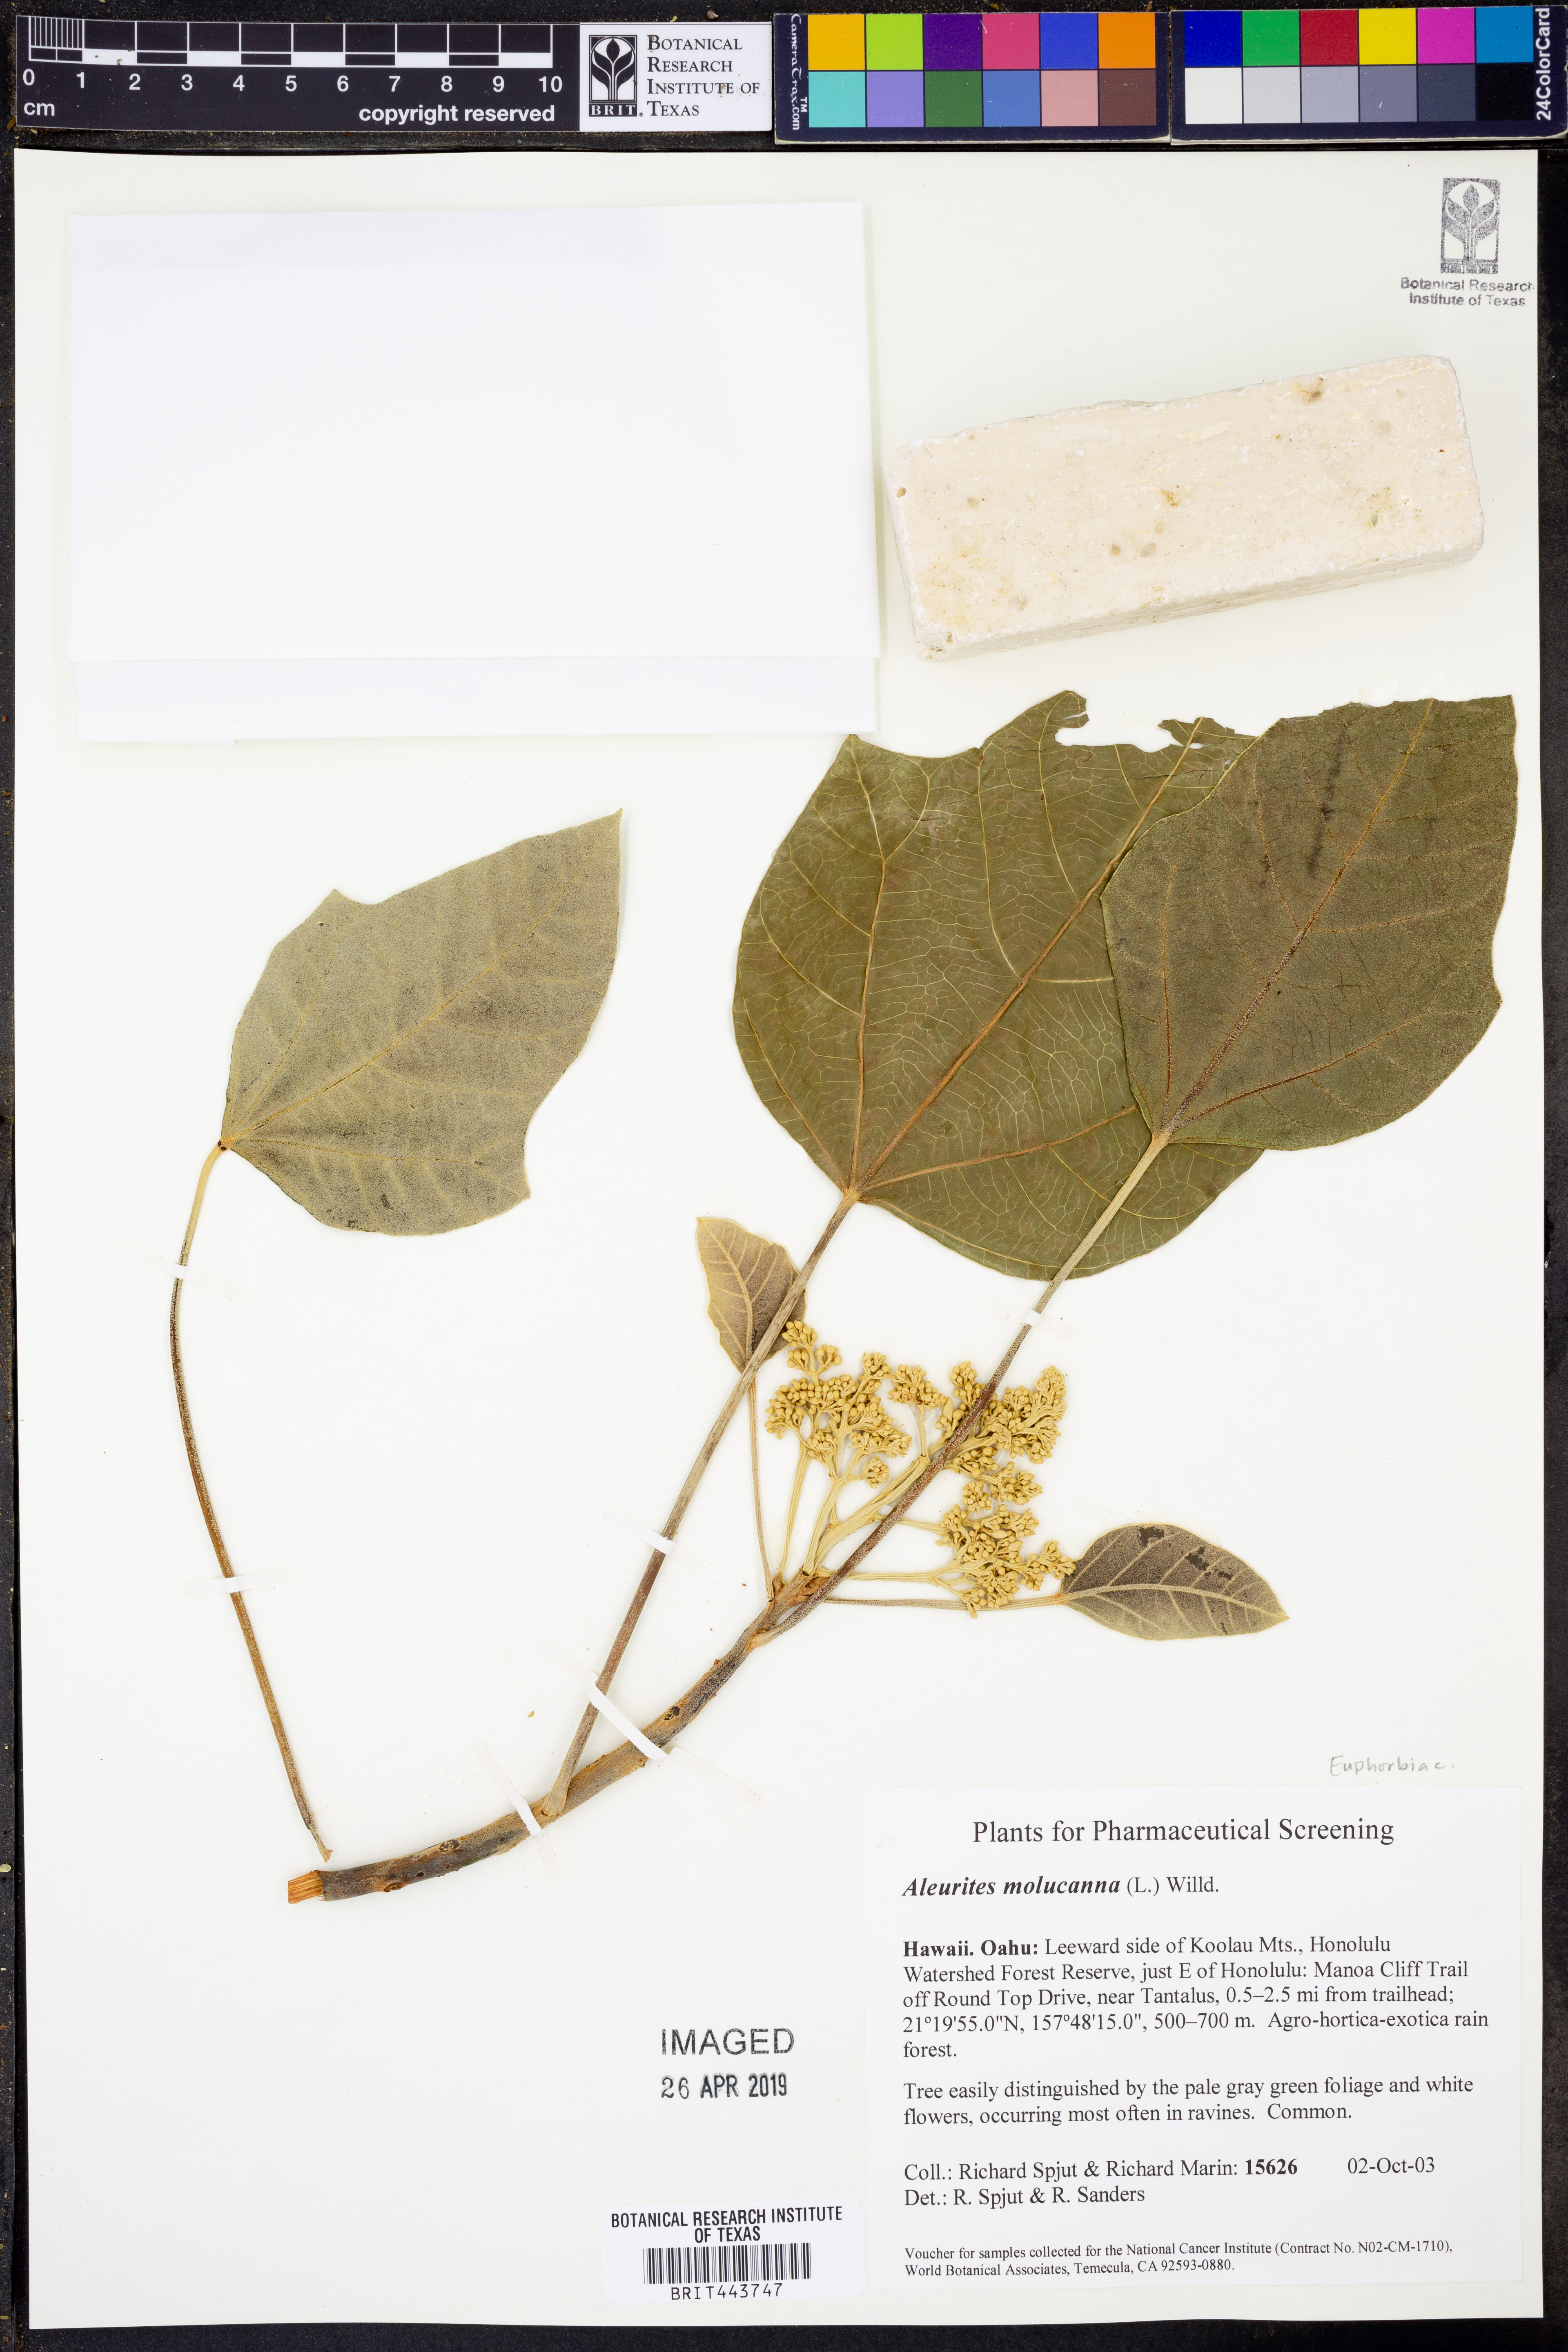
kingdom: Plantae
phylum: Tracheophyta
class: Magnoliopsida
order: Malpighiales
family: Euphorbiaceae
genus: Aleurites
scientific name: Aleurites moluccanus
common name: Candlenut tree
